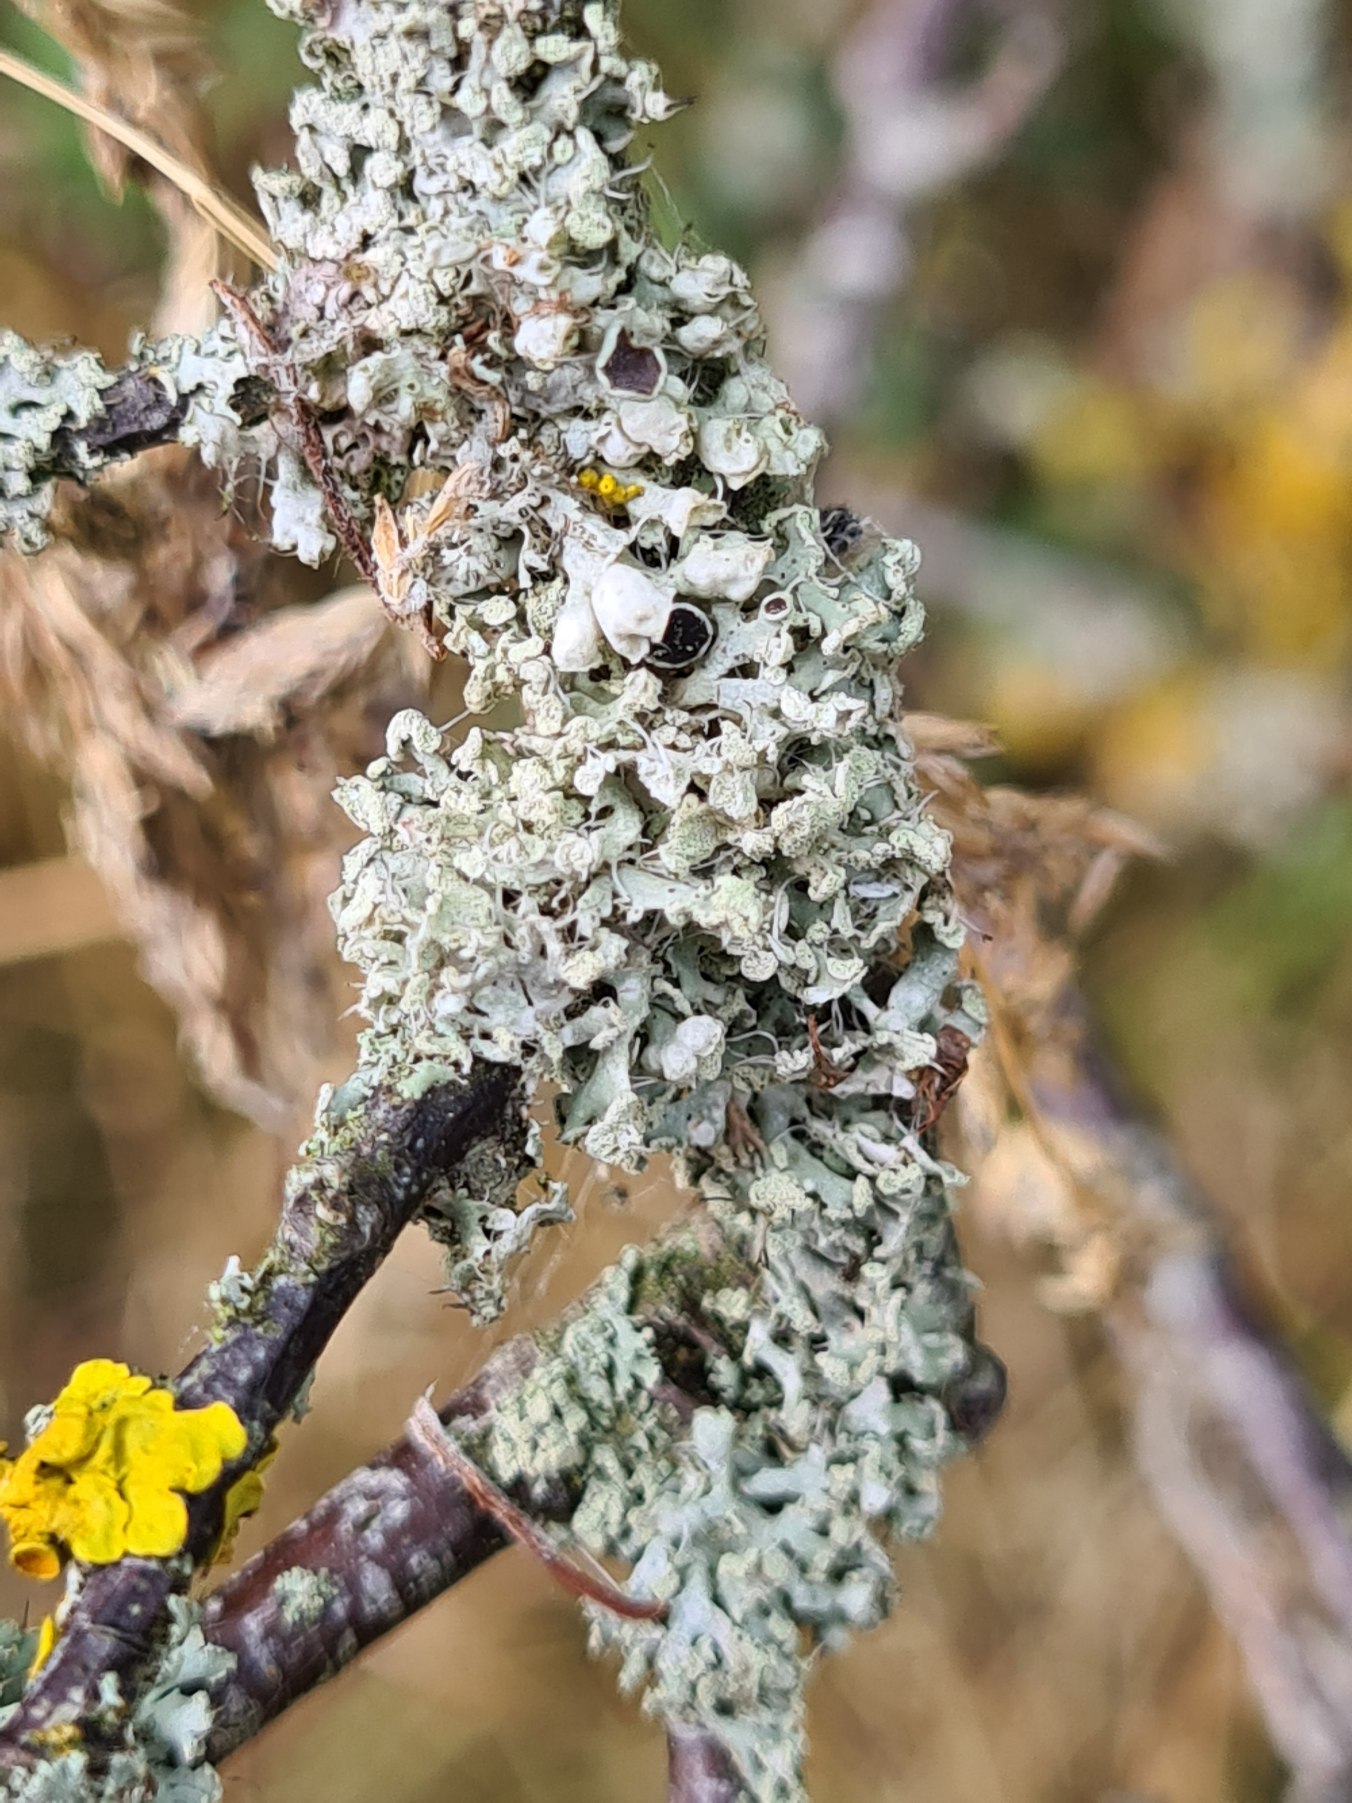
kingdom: Fungi
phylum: Ascomycota
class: Lecanoromycetes
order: Caliciales
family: Physciaceae
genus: Physcia
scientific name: Physcia adscendens
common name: Hætte-rosetlav
